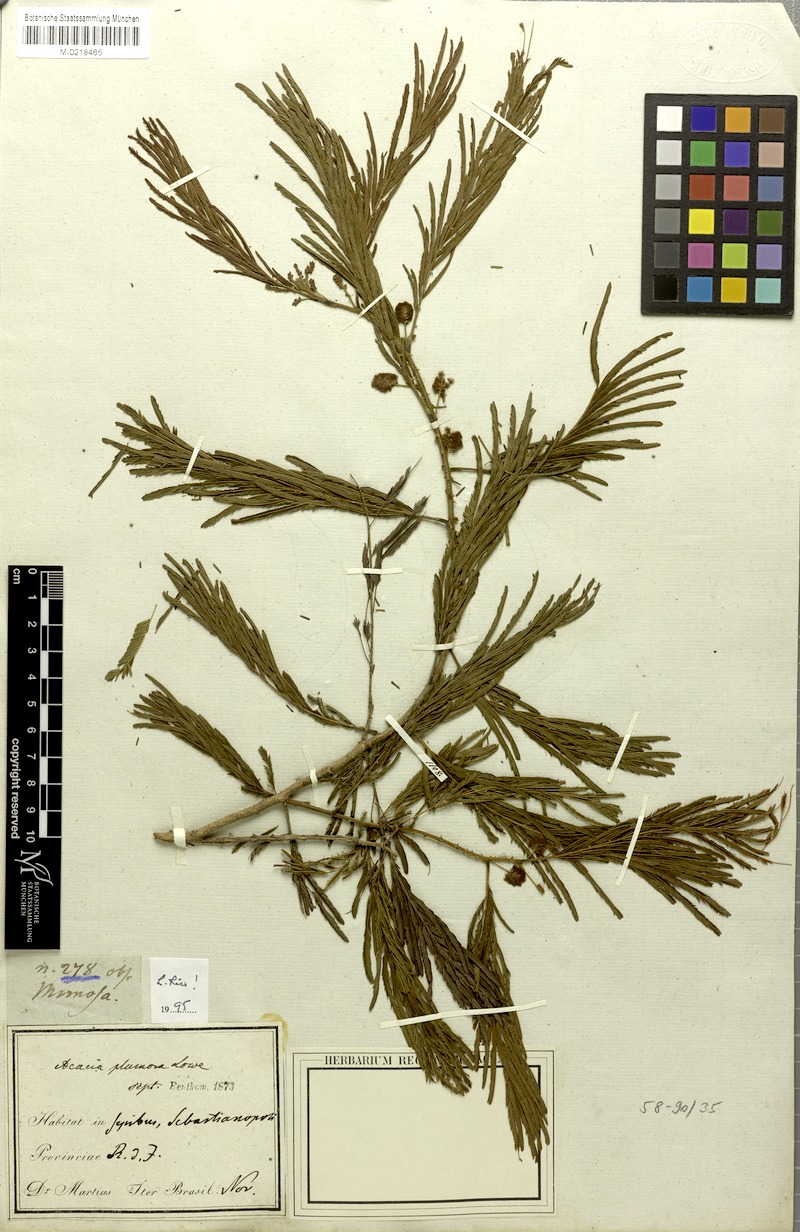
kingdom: Plantae
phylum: Tracheophyta
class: Magnoliopsida
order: Fabales
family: Fabaceae
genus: Senegalia
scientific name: Senegalia lowei
